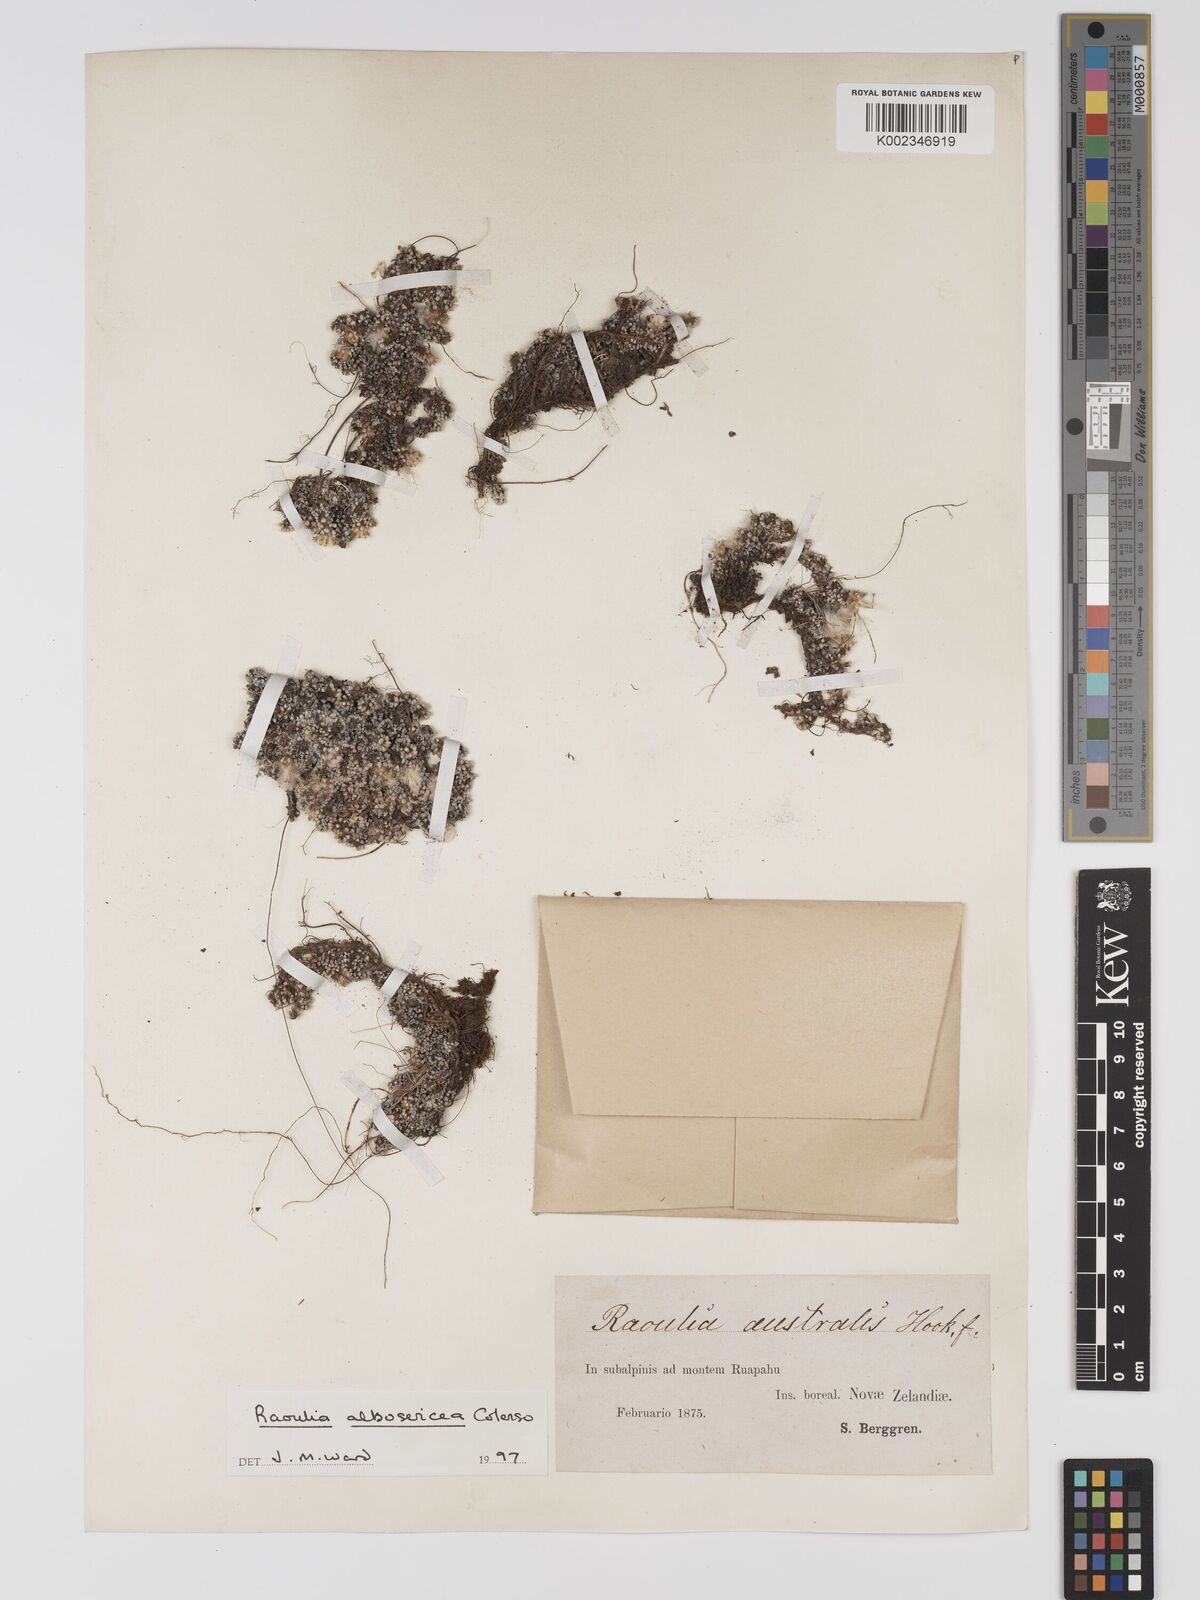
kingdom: Plantae
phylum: Tracheophyta
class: Magnoliopsida
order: Asterales
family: Asteraceae
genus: Raoulia
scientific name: Raoulia albosericea
